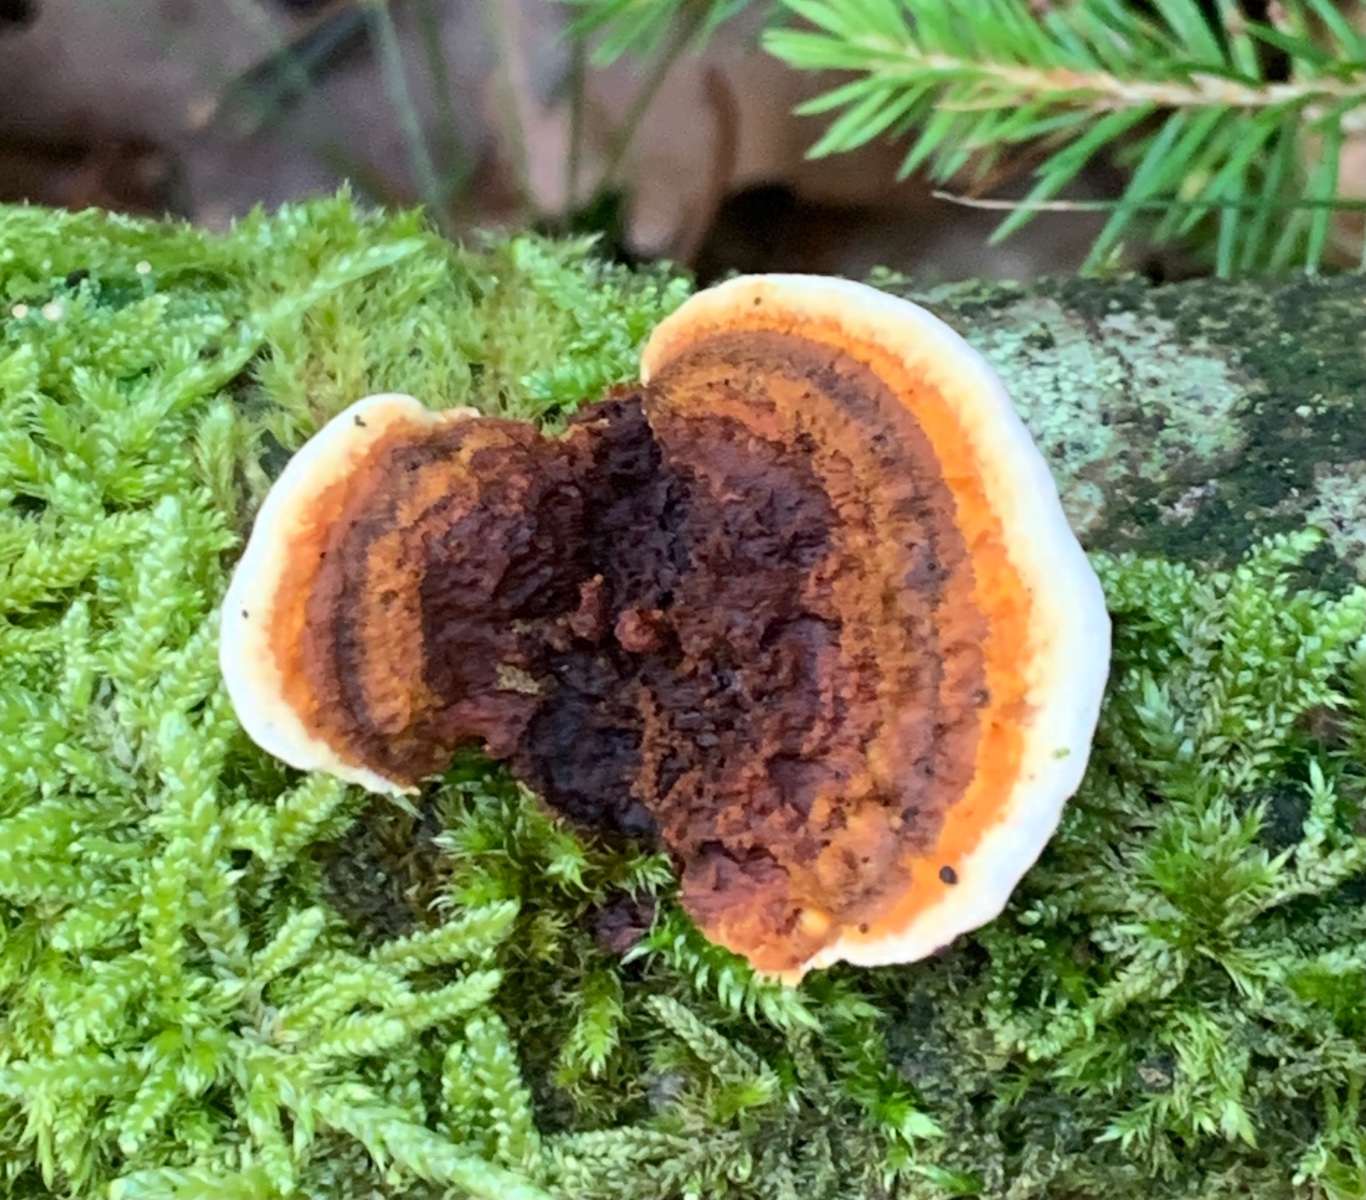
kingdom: Fungi
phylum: Basidiomycota
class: Agaricomycetes
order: Gloeophyllales
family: Gloeophyllaceae
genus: Gloeophyllum
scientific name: Gloeophyllum sepiarium
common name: fyrre-korkhat
